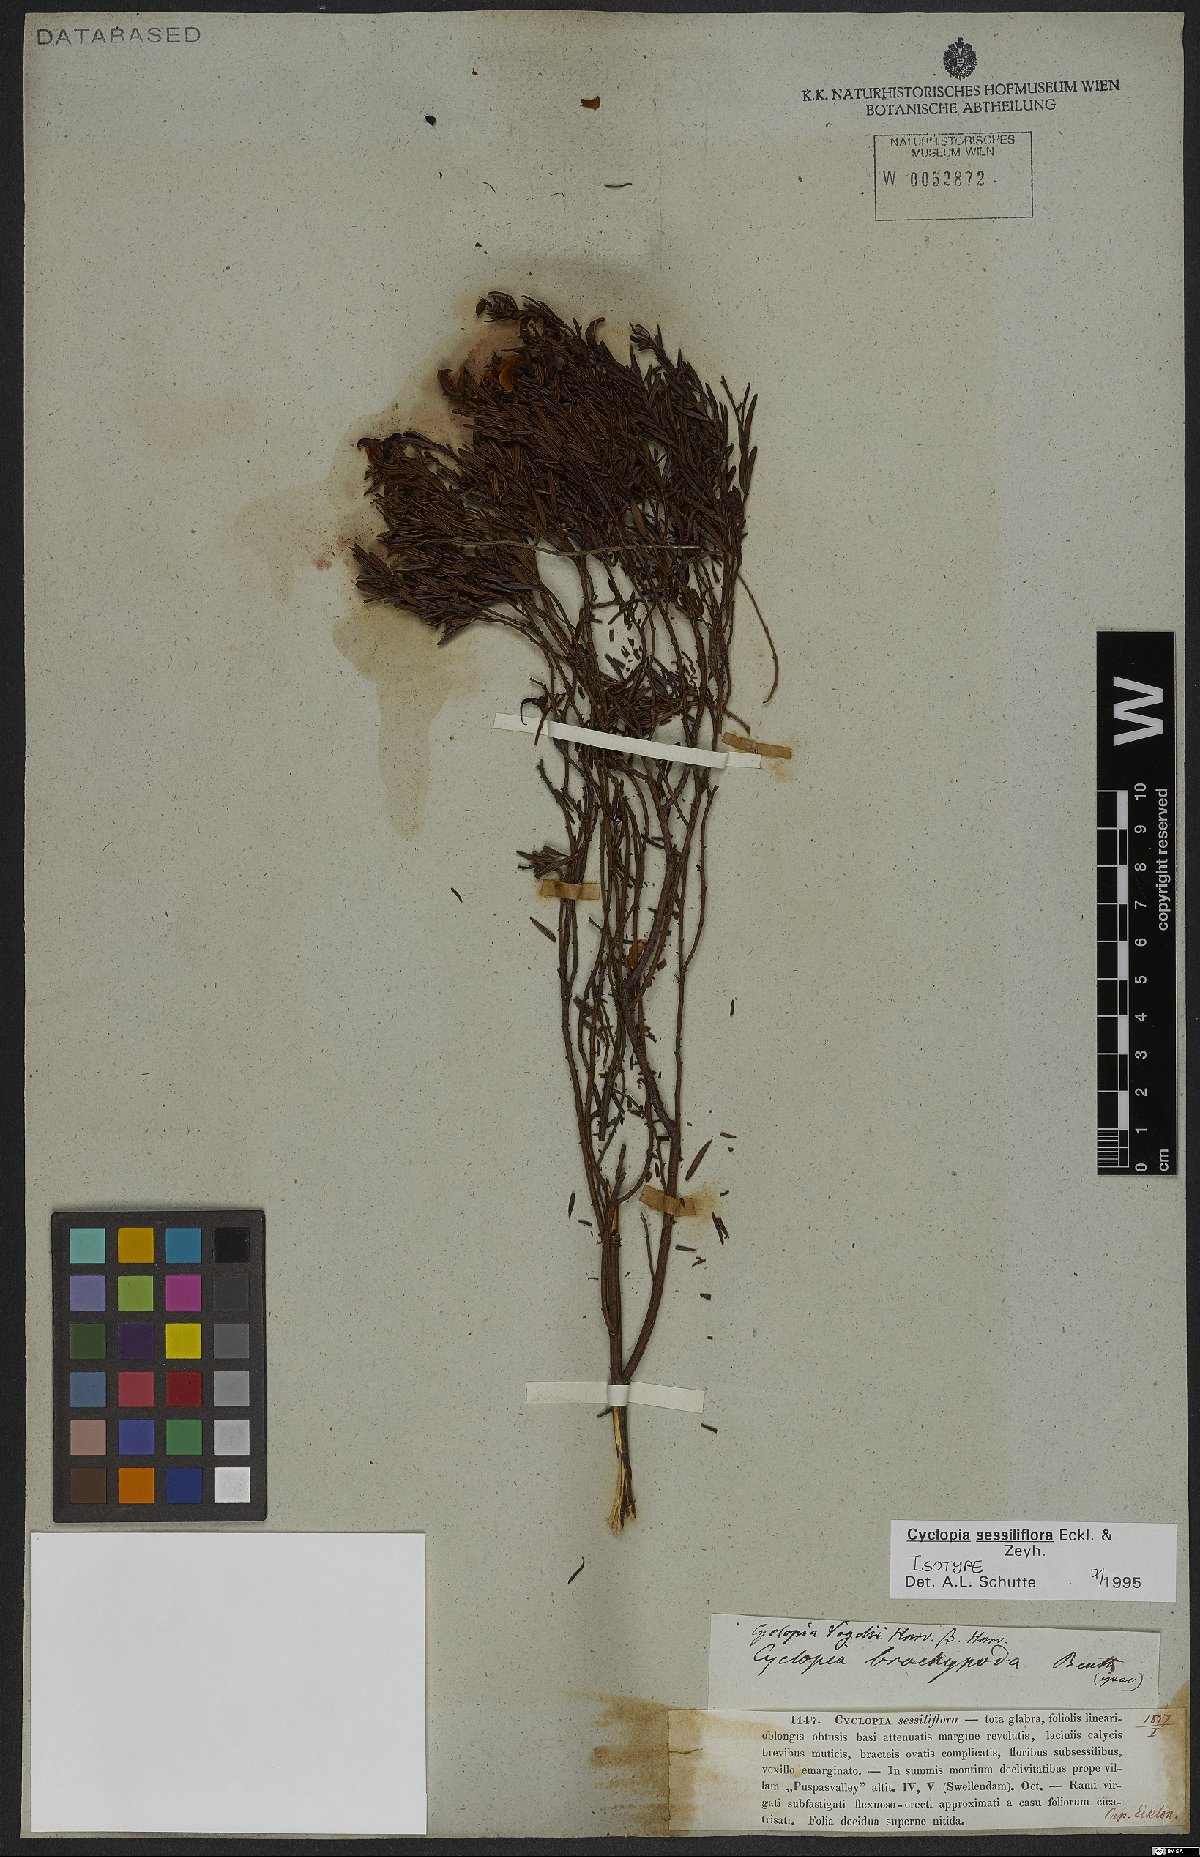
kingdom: Plantae
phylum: Tracheophyta
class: Magnoliopsida
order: Fabales
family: Fabaceae
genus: Cyclopia
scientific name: Cyclopia sessiliflora
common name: Heidelberg tea
